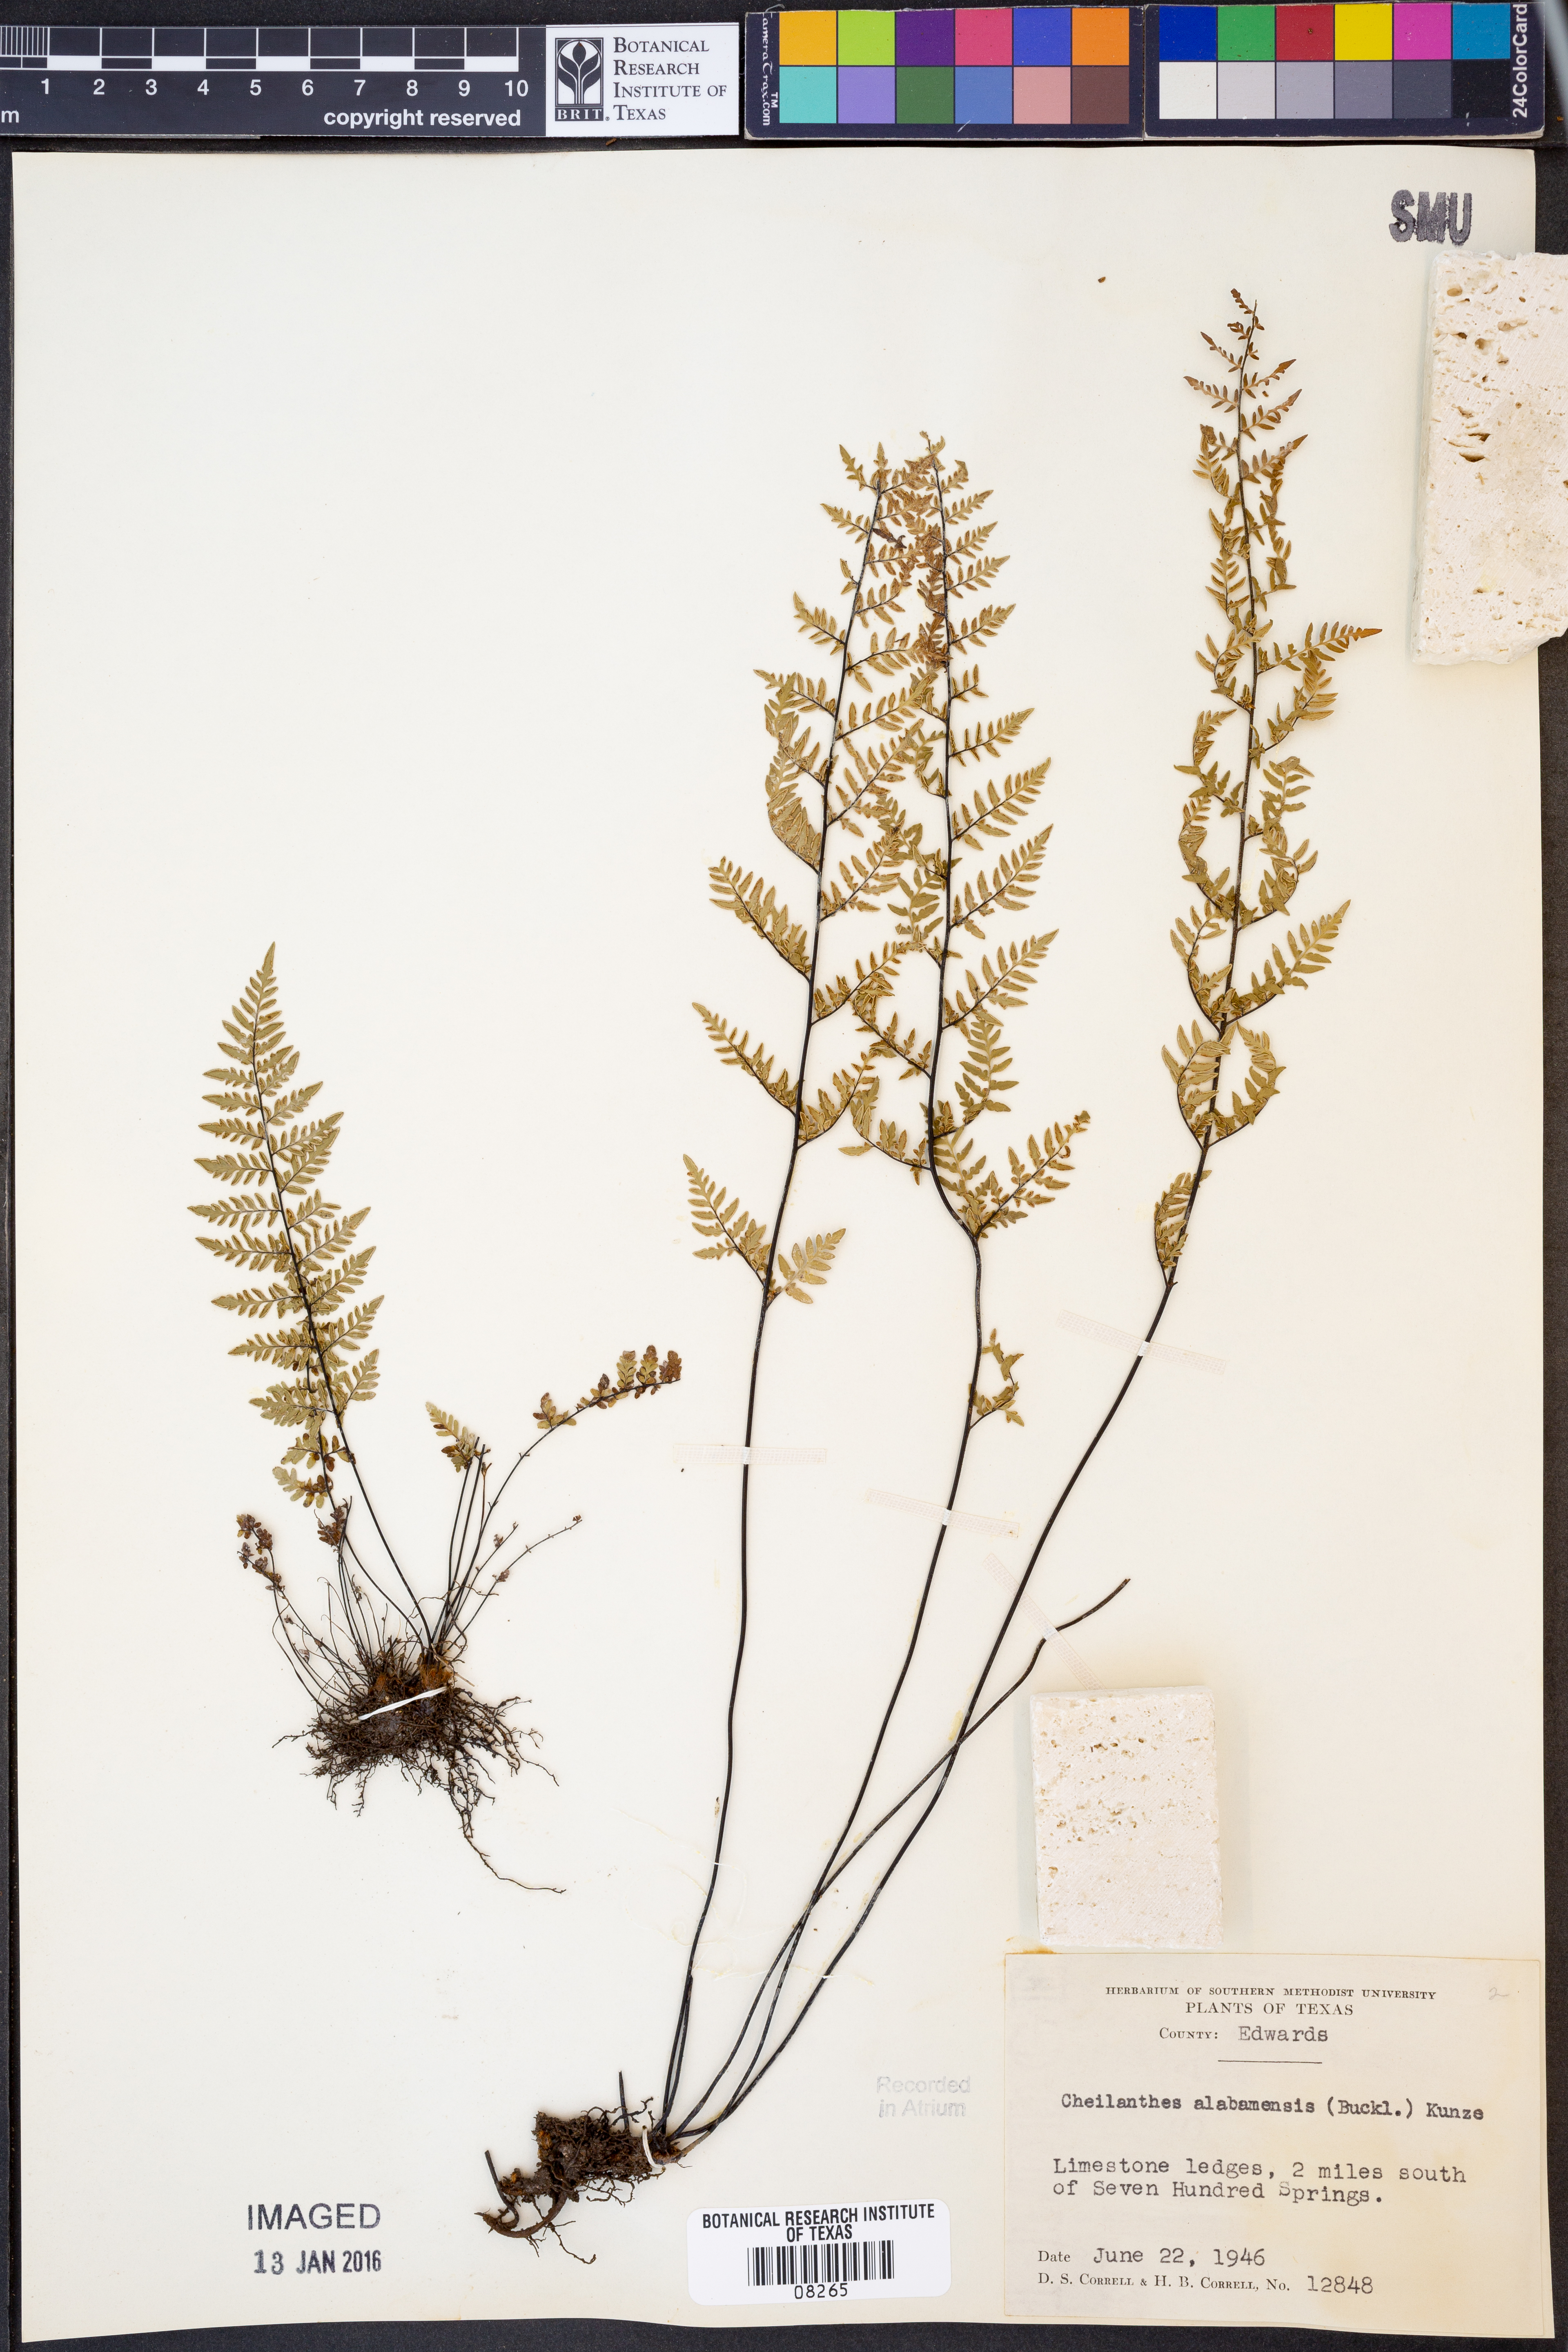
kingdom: Plantae
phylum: Tracheophyta
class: Polypodiopsida
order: Polypodiales
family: Pteridaceae
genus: Myriopteris
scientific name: Myriopteris alabamensis
